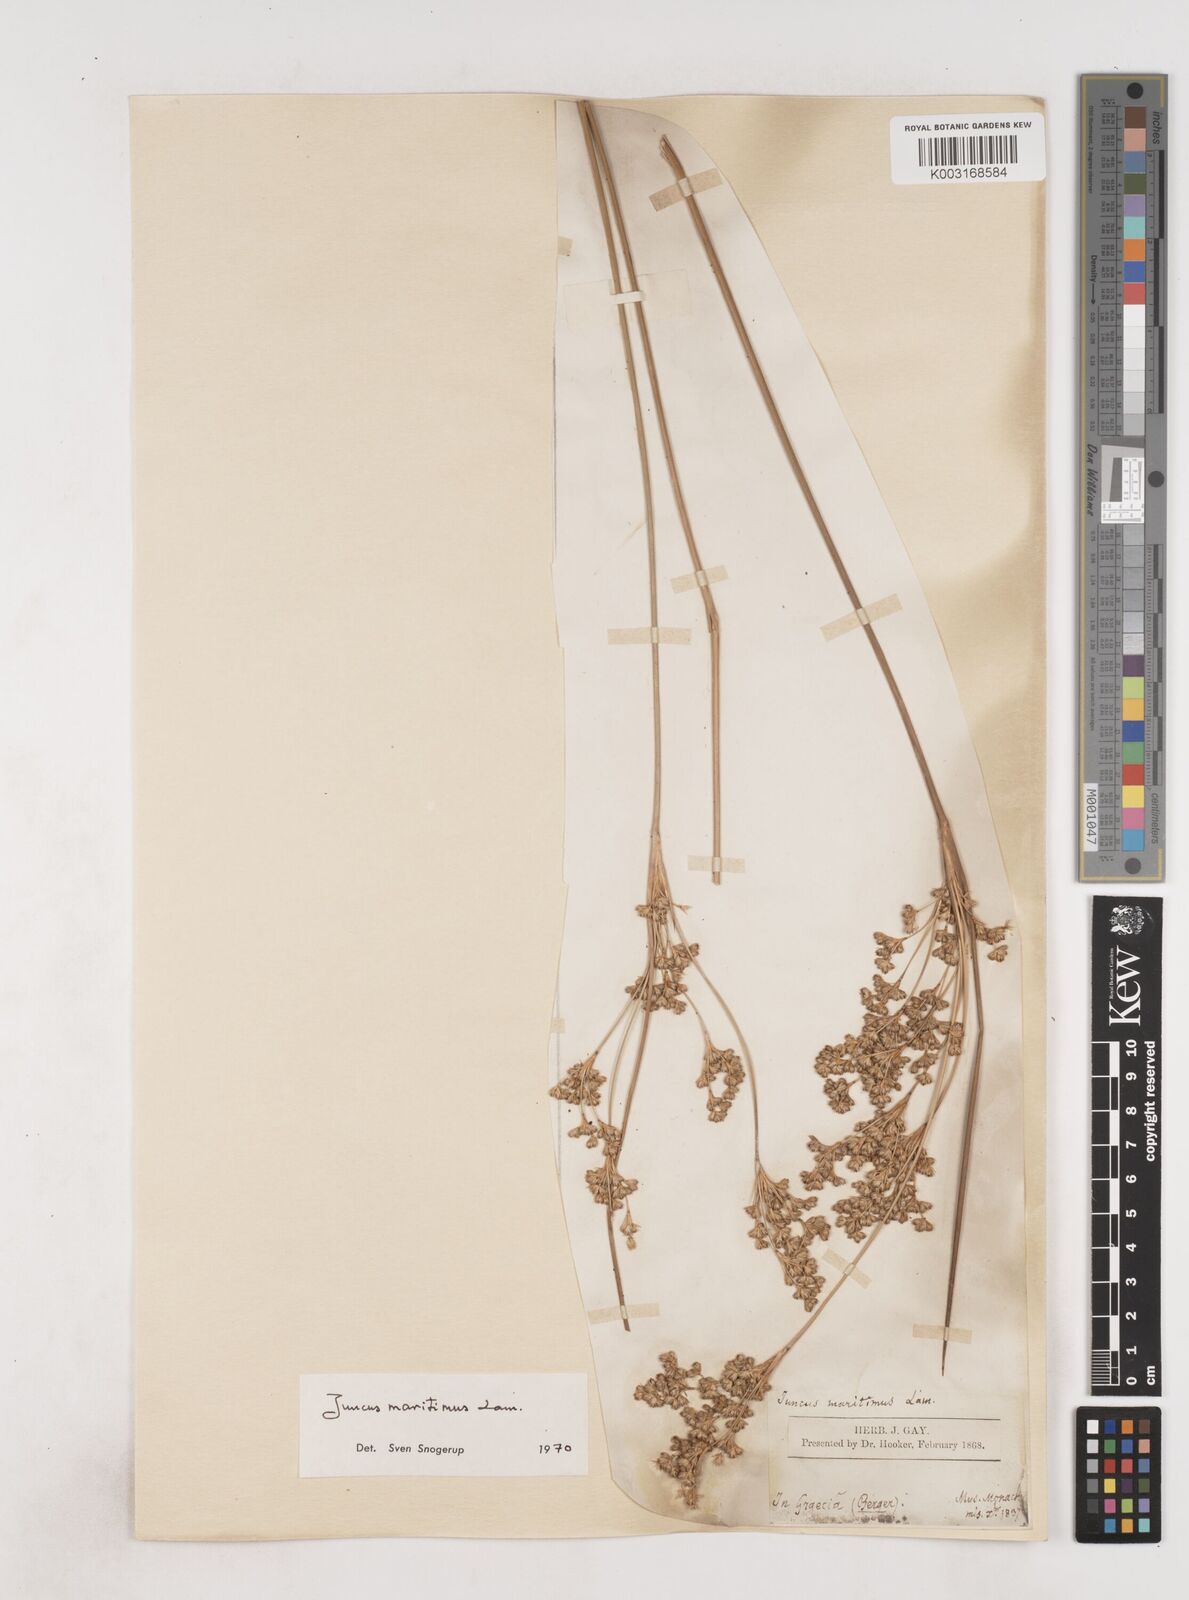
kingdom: Plantae
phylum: Tracheophyta
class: Liliopsida
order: Poales
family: Juncaceae
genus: Juncus
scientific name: Juncus maritimus
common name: Sea rush
